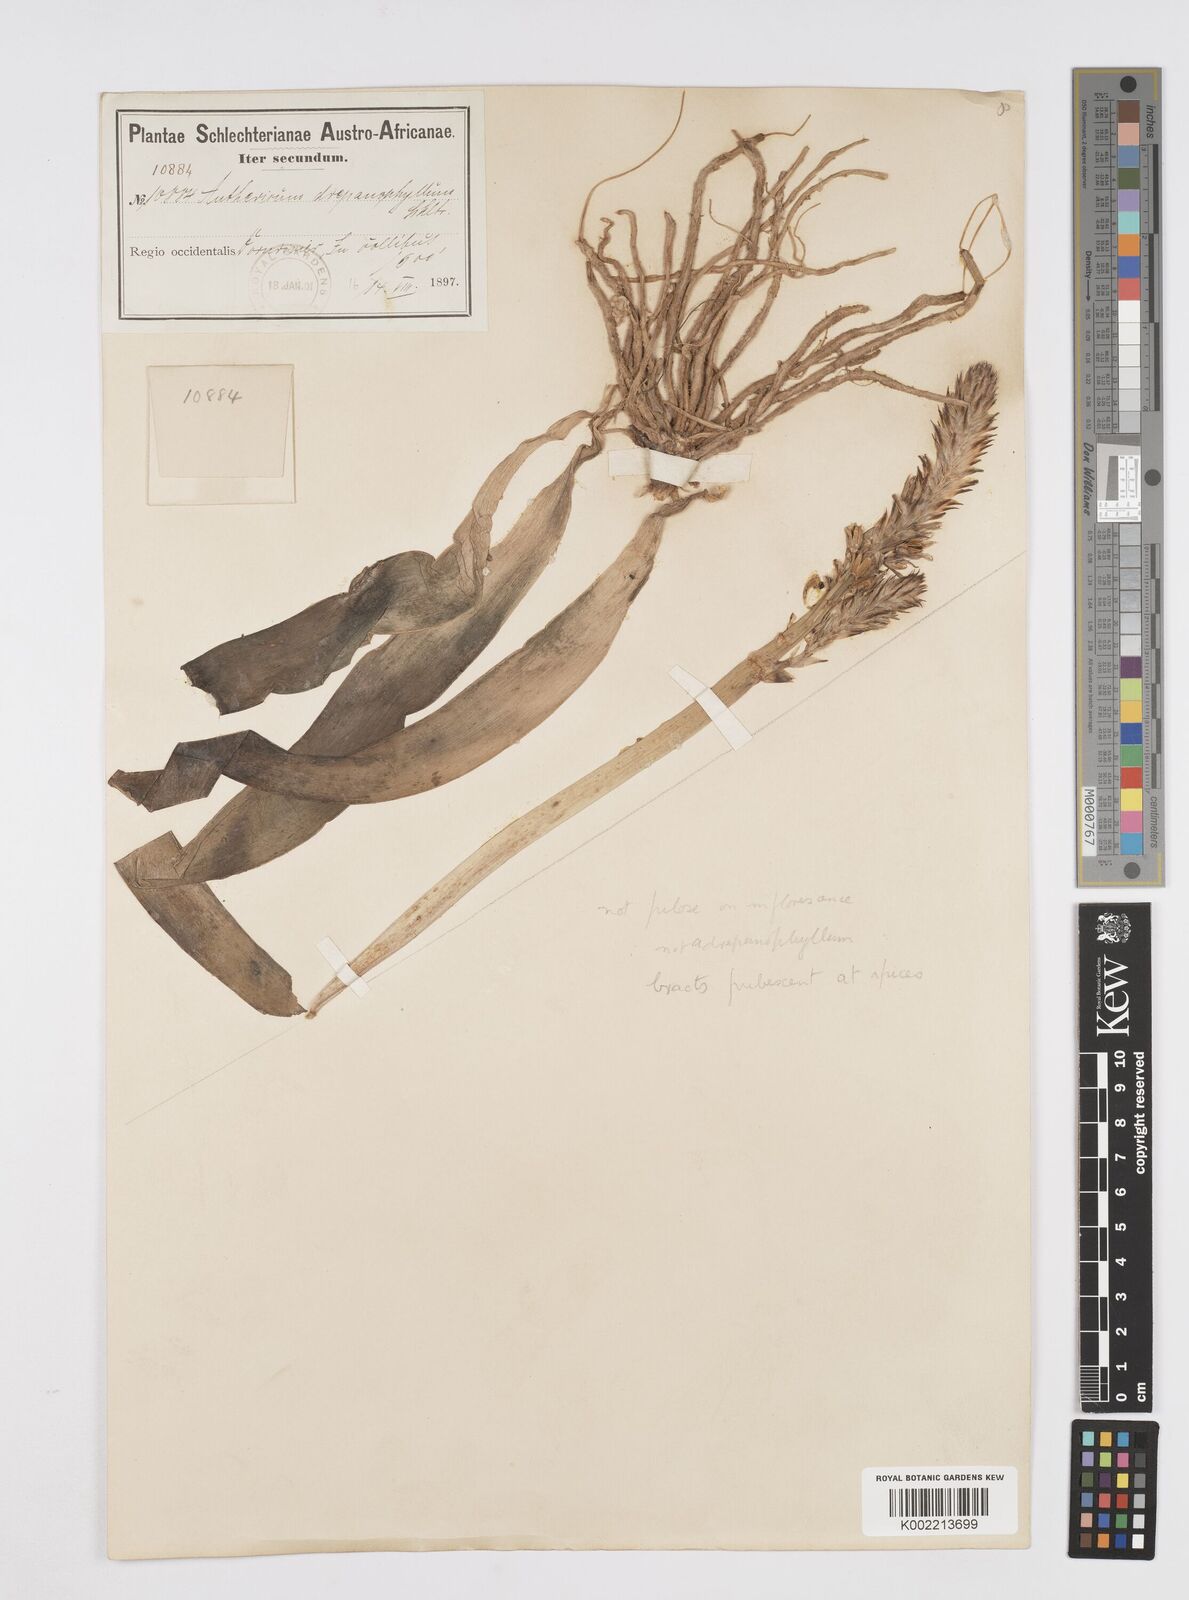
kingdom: Plantae
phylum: Tracheophyta
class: Liliopsida
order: Asparagales
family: Asphodelaceae
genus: Trachyandra
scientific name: Trachyandra falcata
